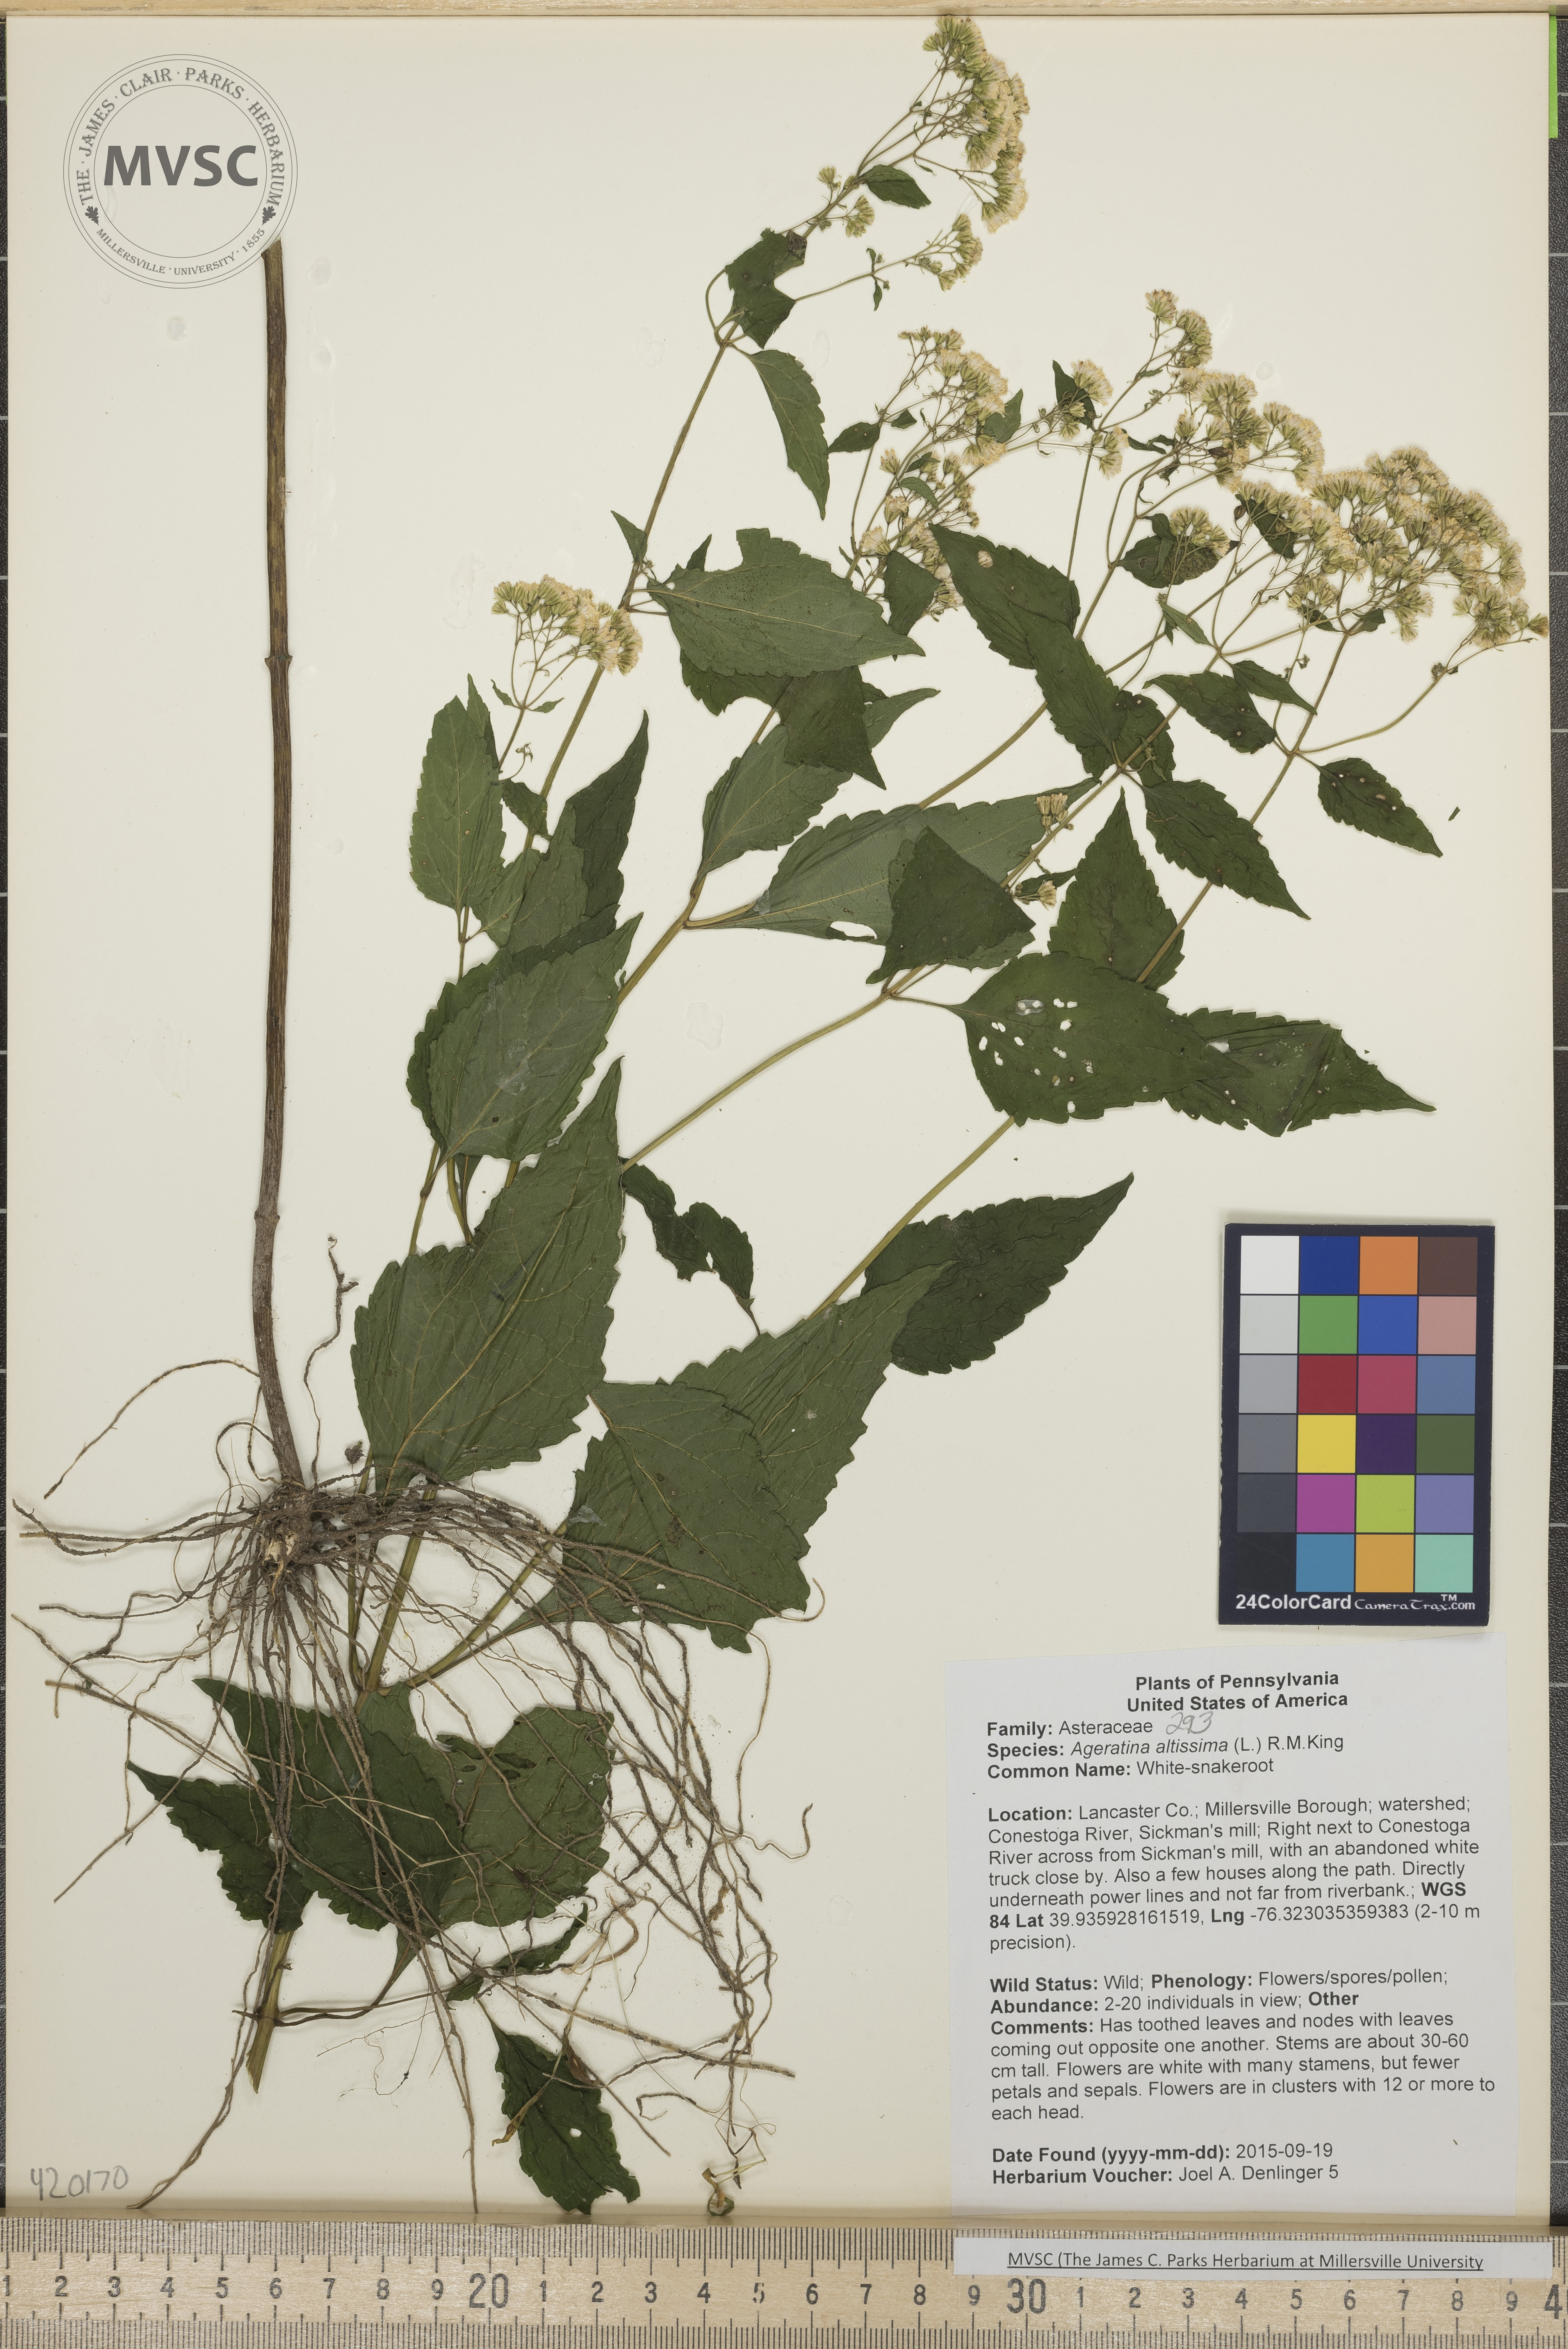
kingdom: Plantae
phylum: Tracheophyta
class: Magnoliopsida
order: Asterales
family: Asteraceae
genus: Ageratina
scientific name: Ageratina altissima
